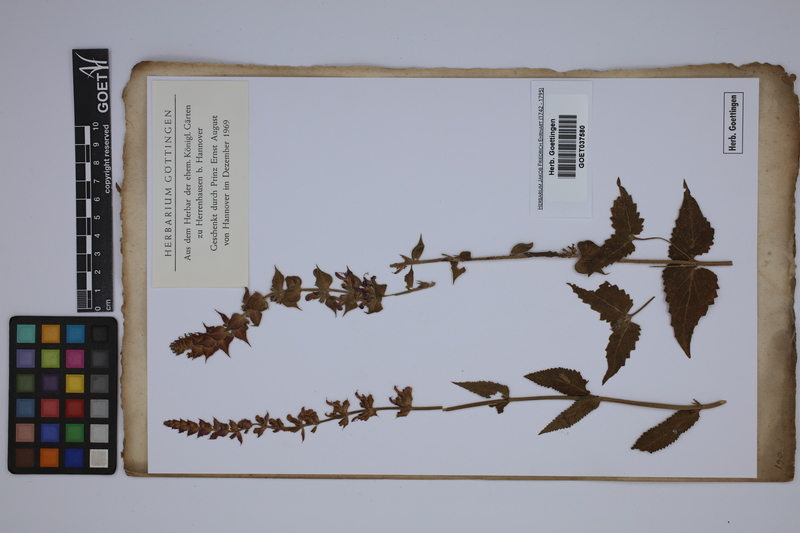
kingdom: Plantae
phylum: Tracheophyta
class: Magnoliopsida
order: Lamiales
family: Lamiaceae
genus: Salvia
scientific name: Salvia nemorosa
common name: Balkan clary
